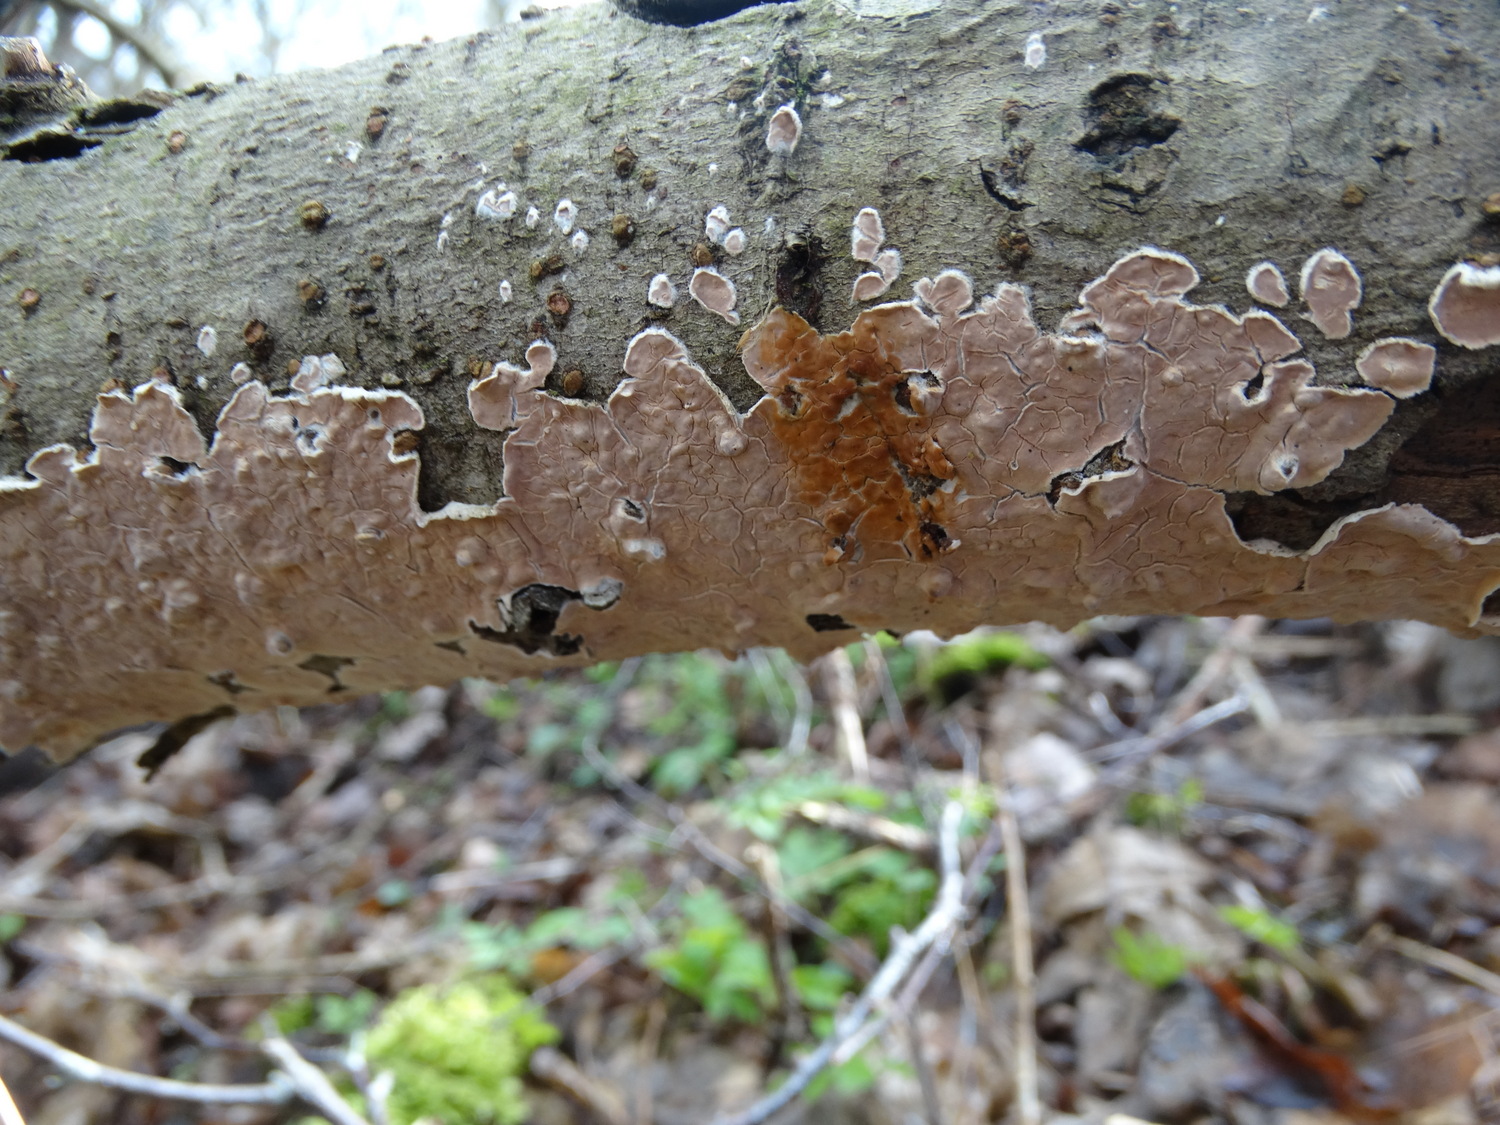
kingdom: Fungi
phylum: Basidiomycota
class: Agaricomycetes
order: Russulales
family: Stereaceae
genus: Stereum
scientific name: Stereum rugosum
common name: rynket lædersvamp
